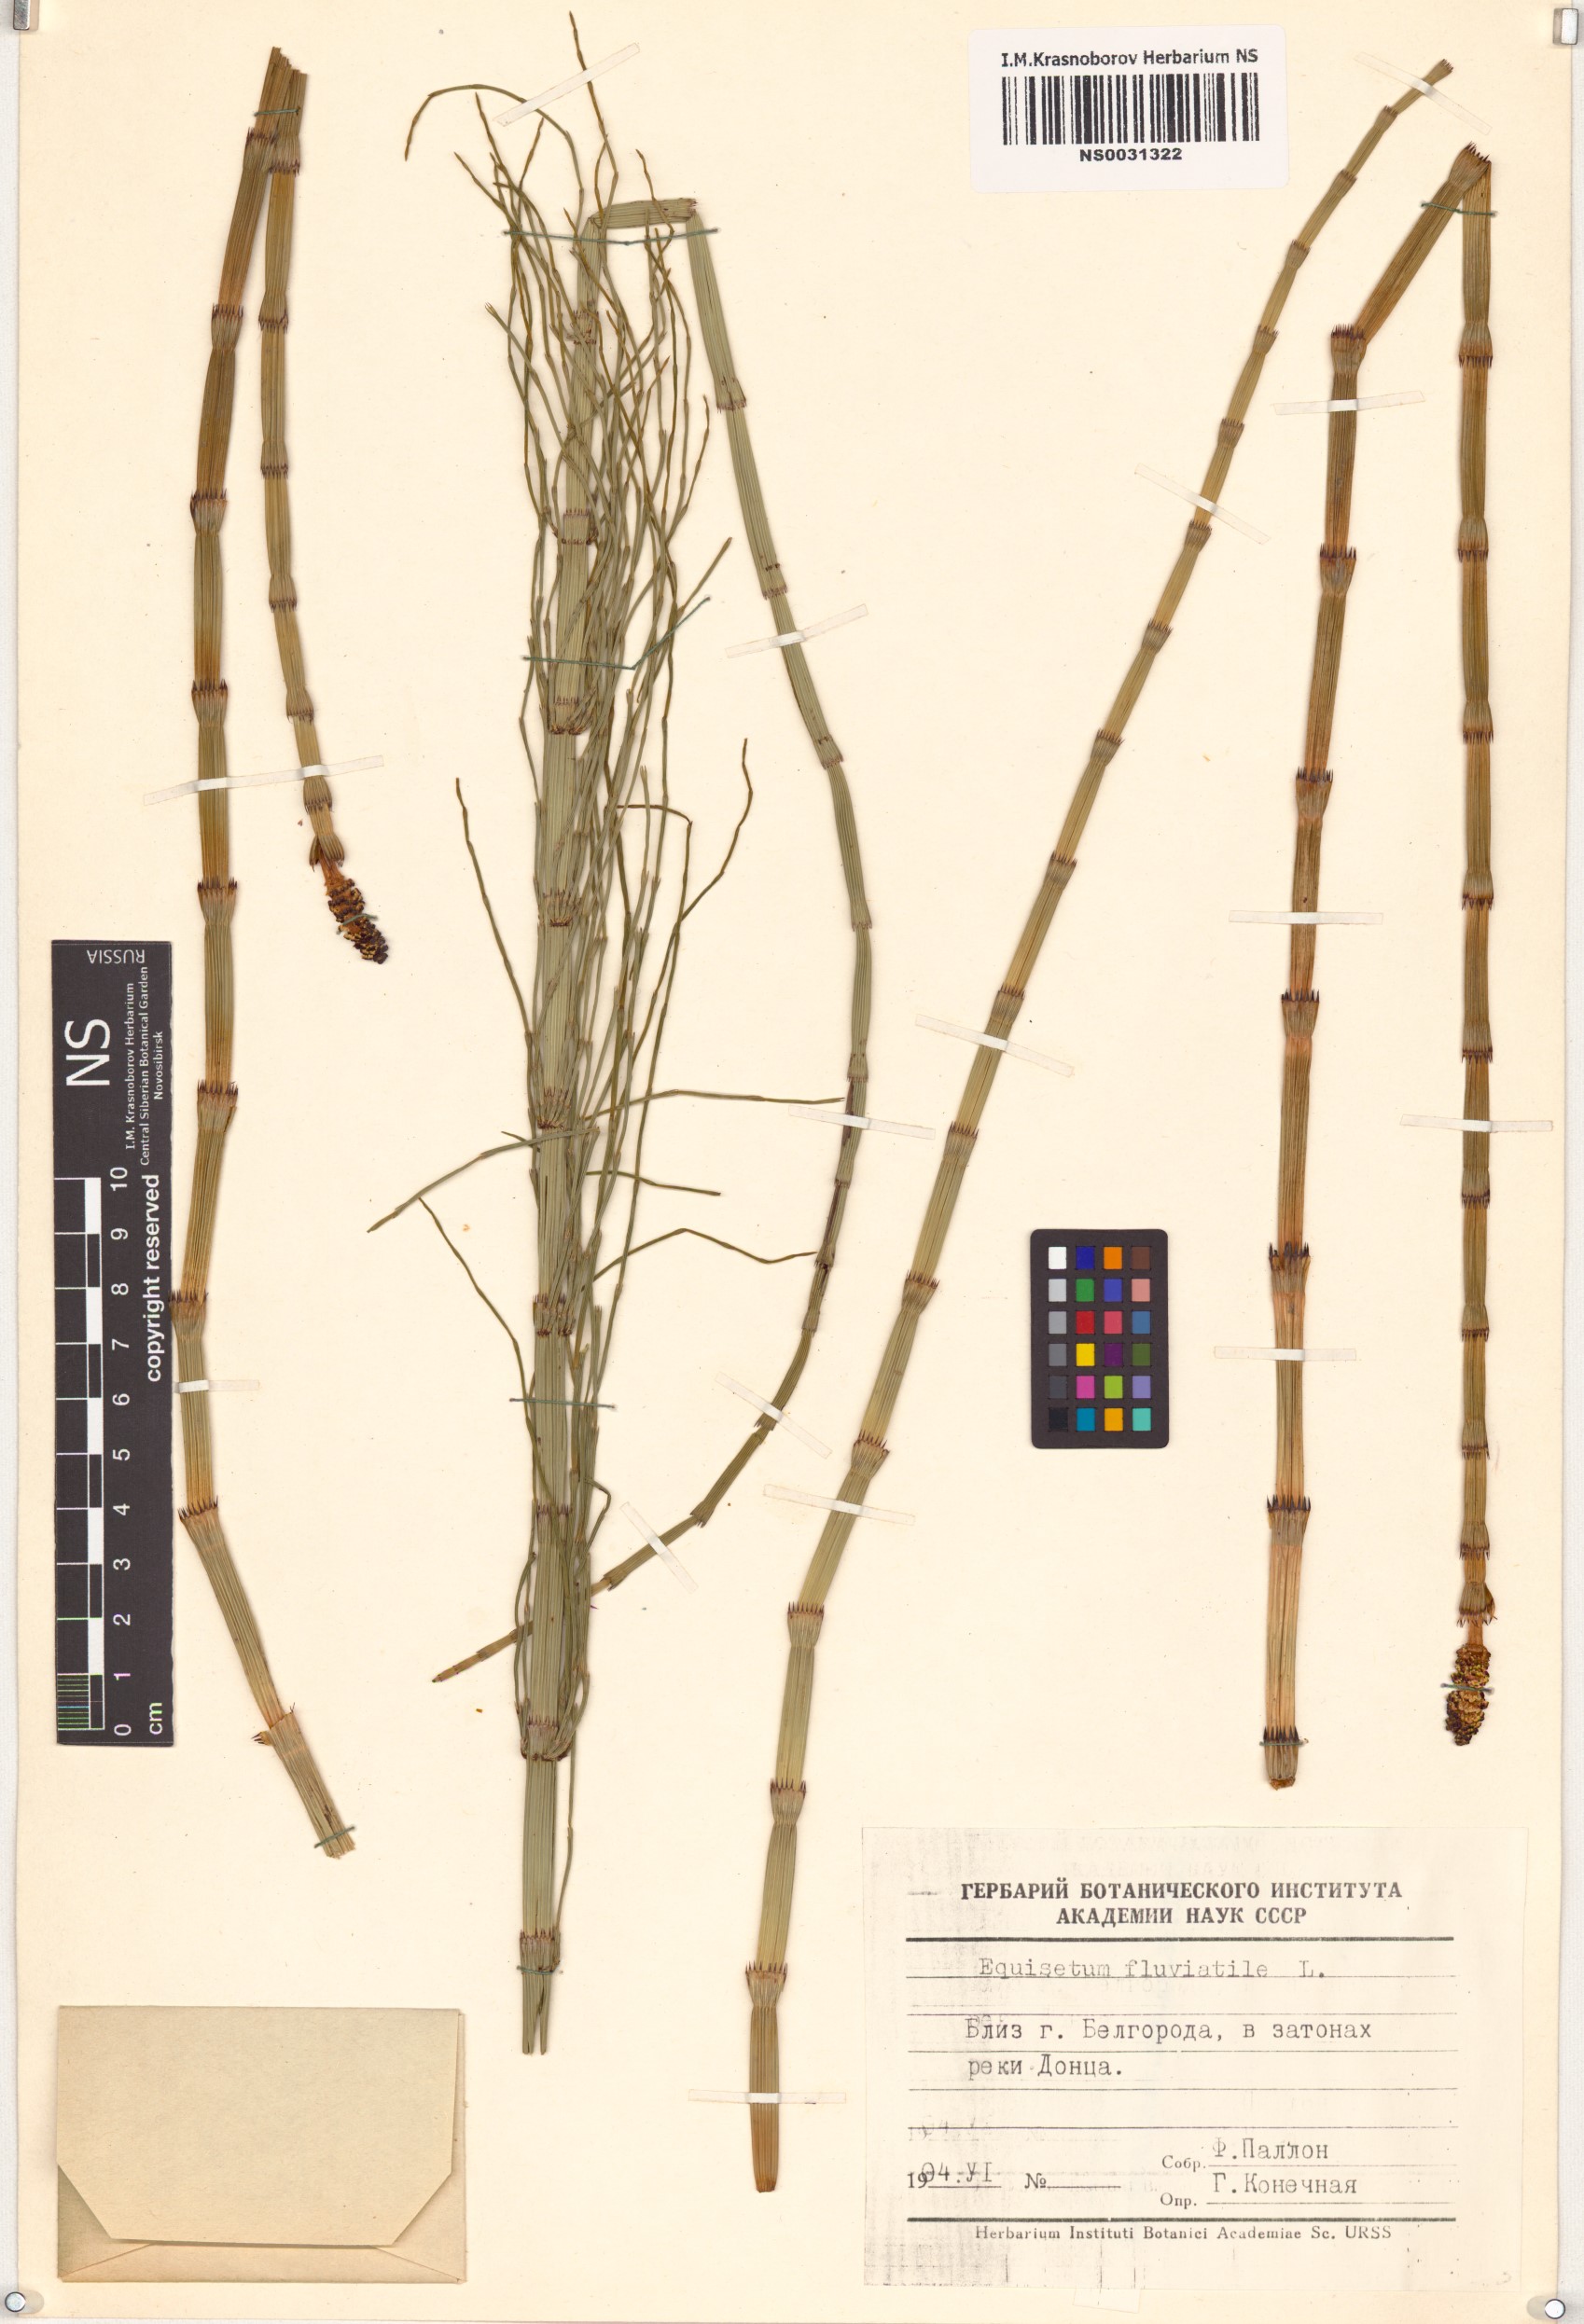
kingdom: Plantae
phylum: Tracheophyta
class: Polypodiopsida
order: Equisetales
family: Equisetaceae
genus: Equisetum
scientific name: Equisetum fluviatile
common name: Water horsetail
